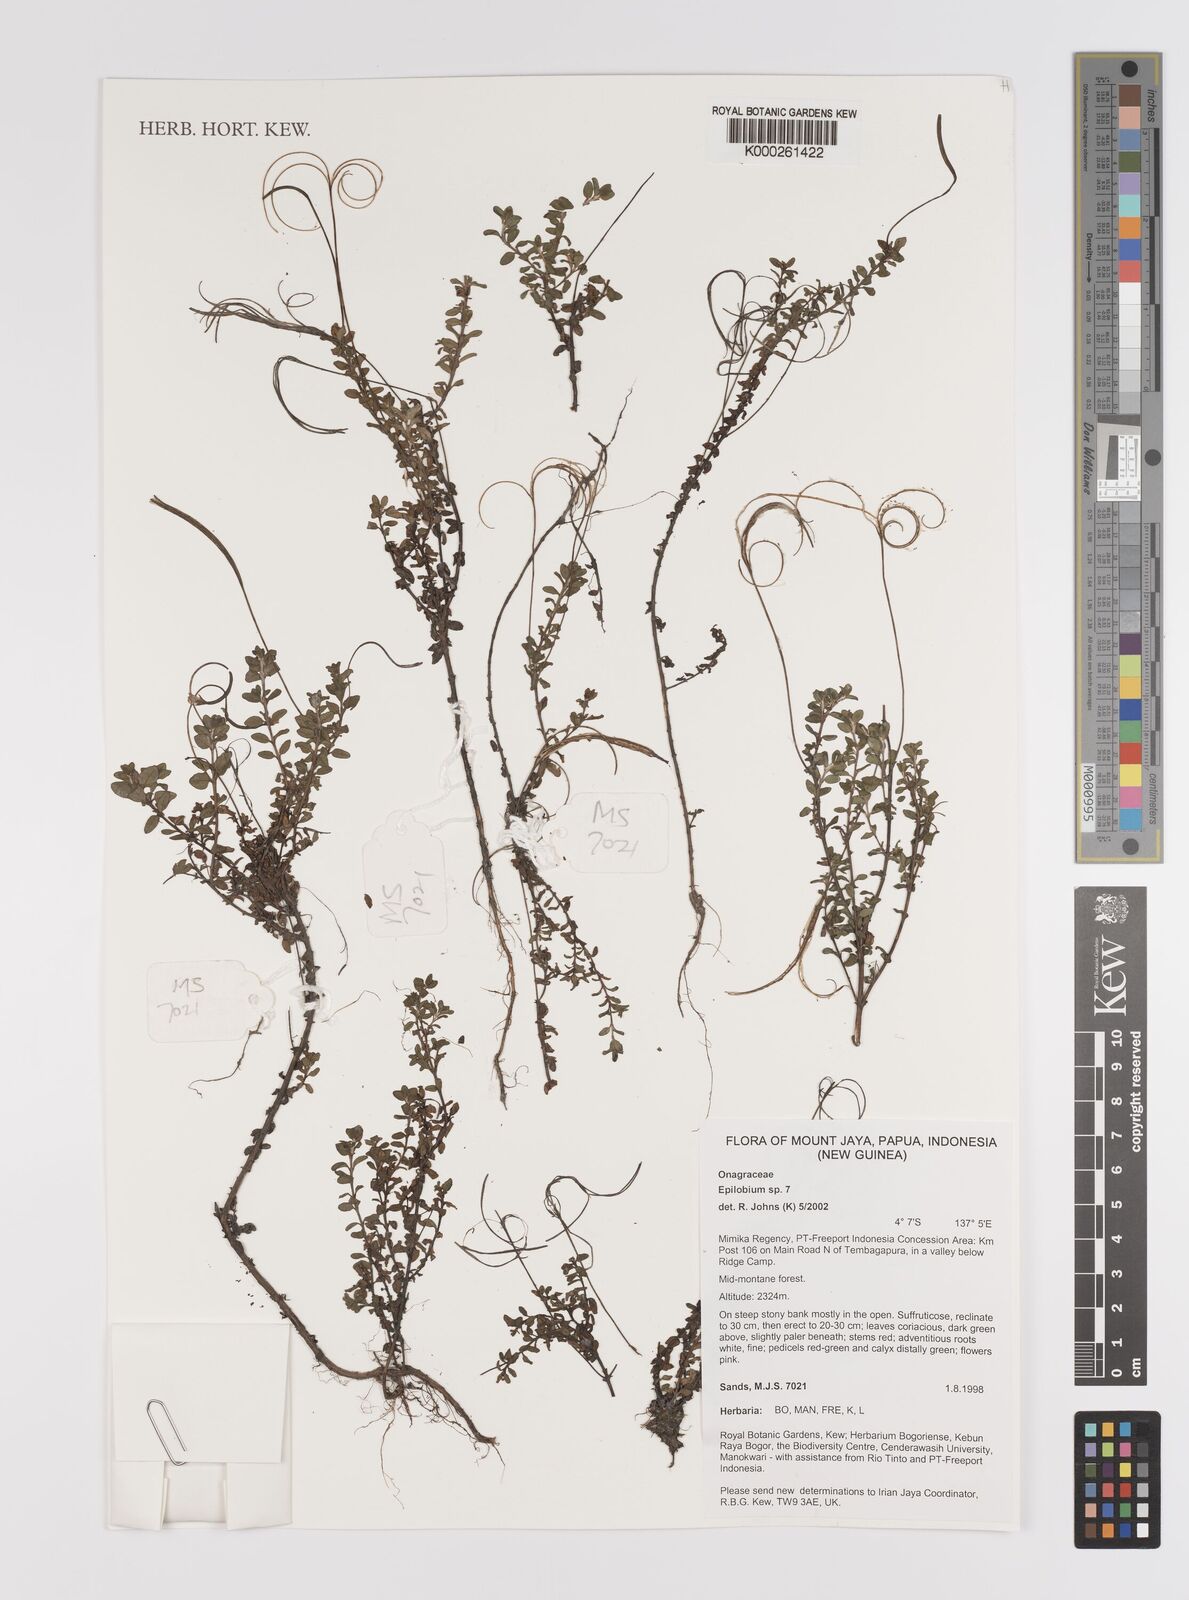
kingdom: Plantae
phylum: Tracheophyta
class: Magnoliopsida
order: Myrtales
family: Onagraceae
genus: Epilobium
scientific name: Epilobium
